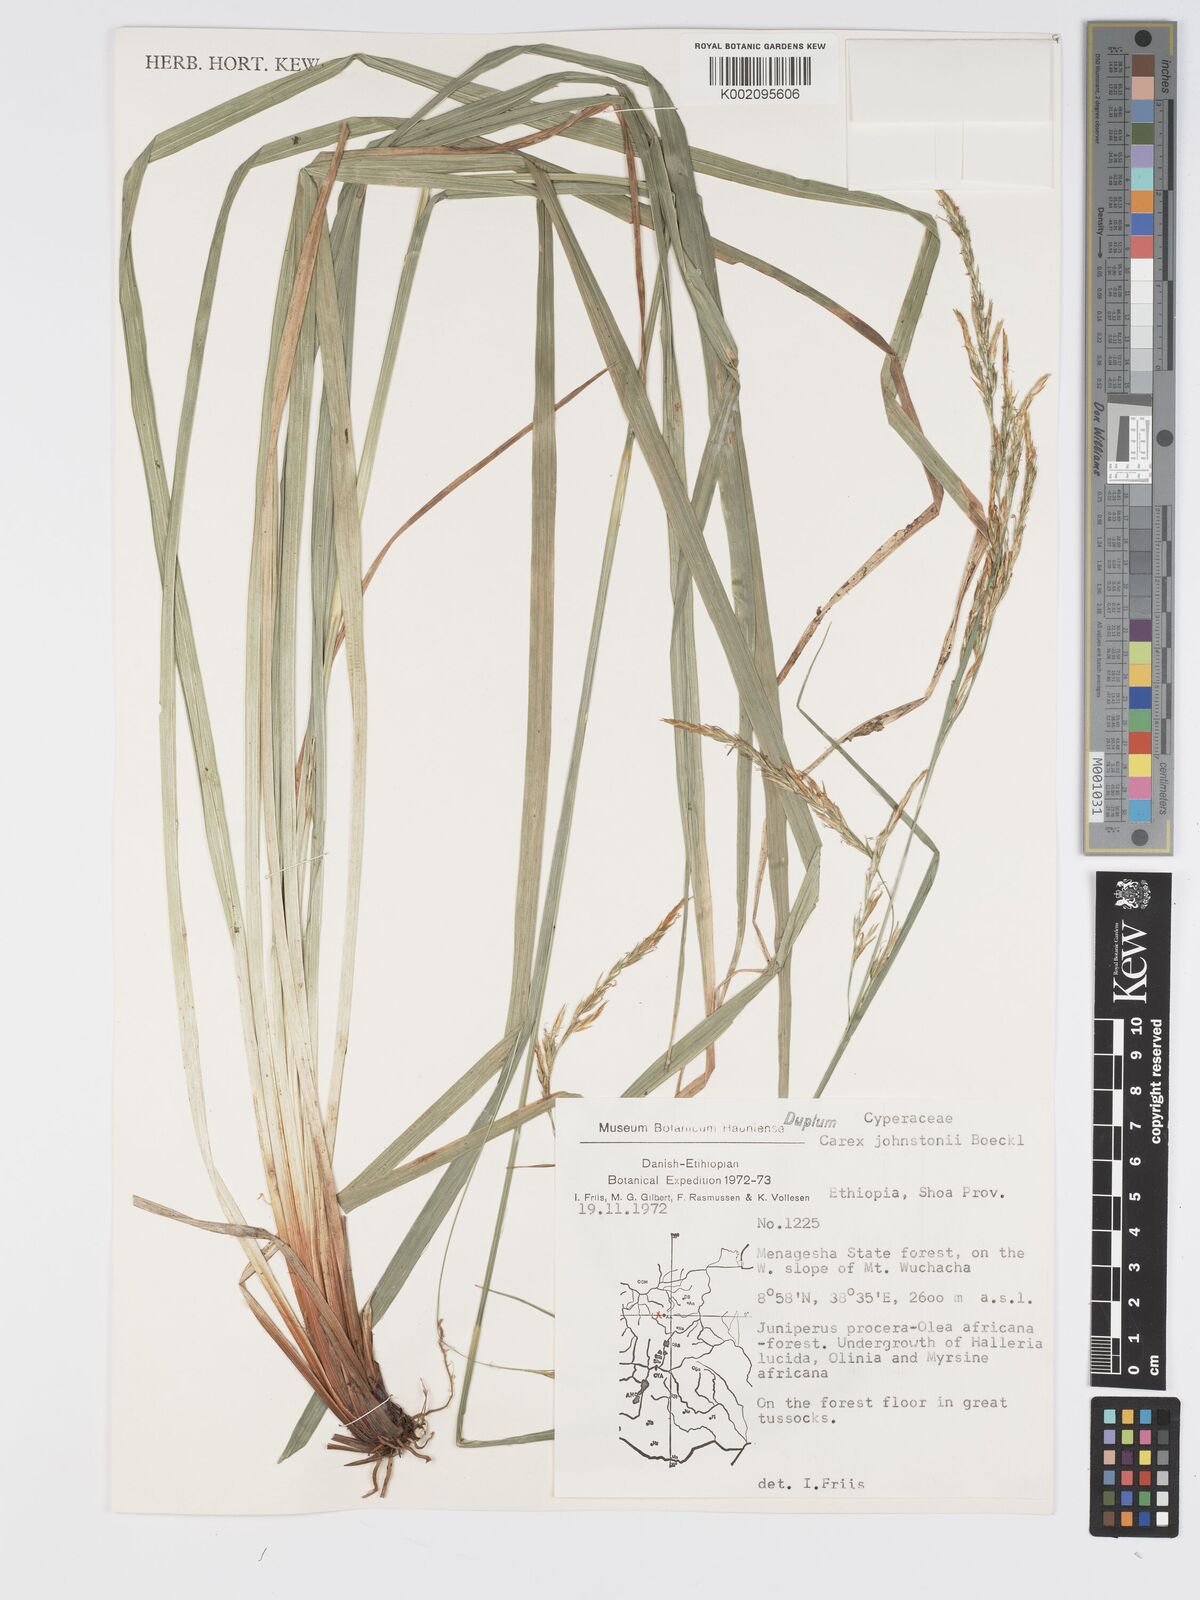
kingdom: Plantae
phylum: Tracheophyta
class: Liliopsida
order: Poales
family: Cyperaceae
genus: Carex
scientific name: Carex johnstonii
